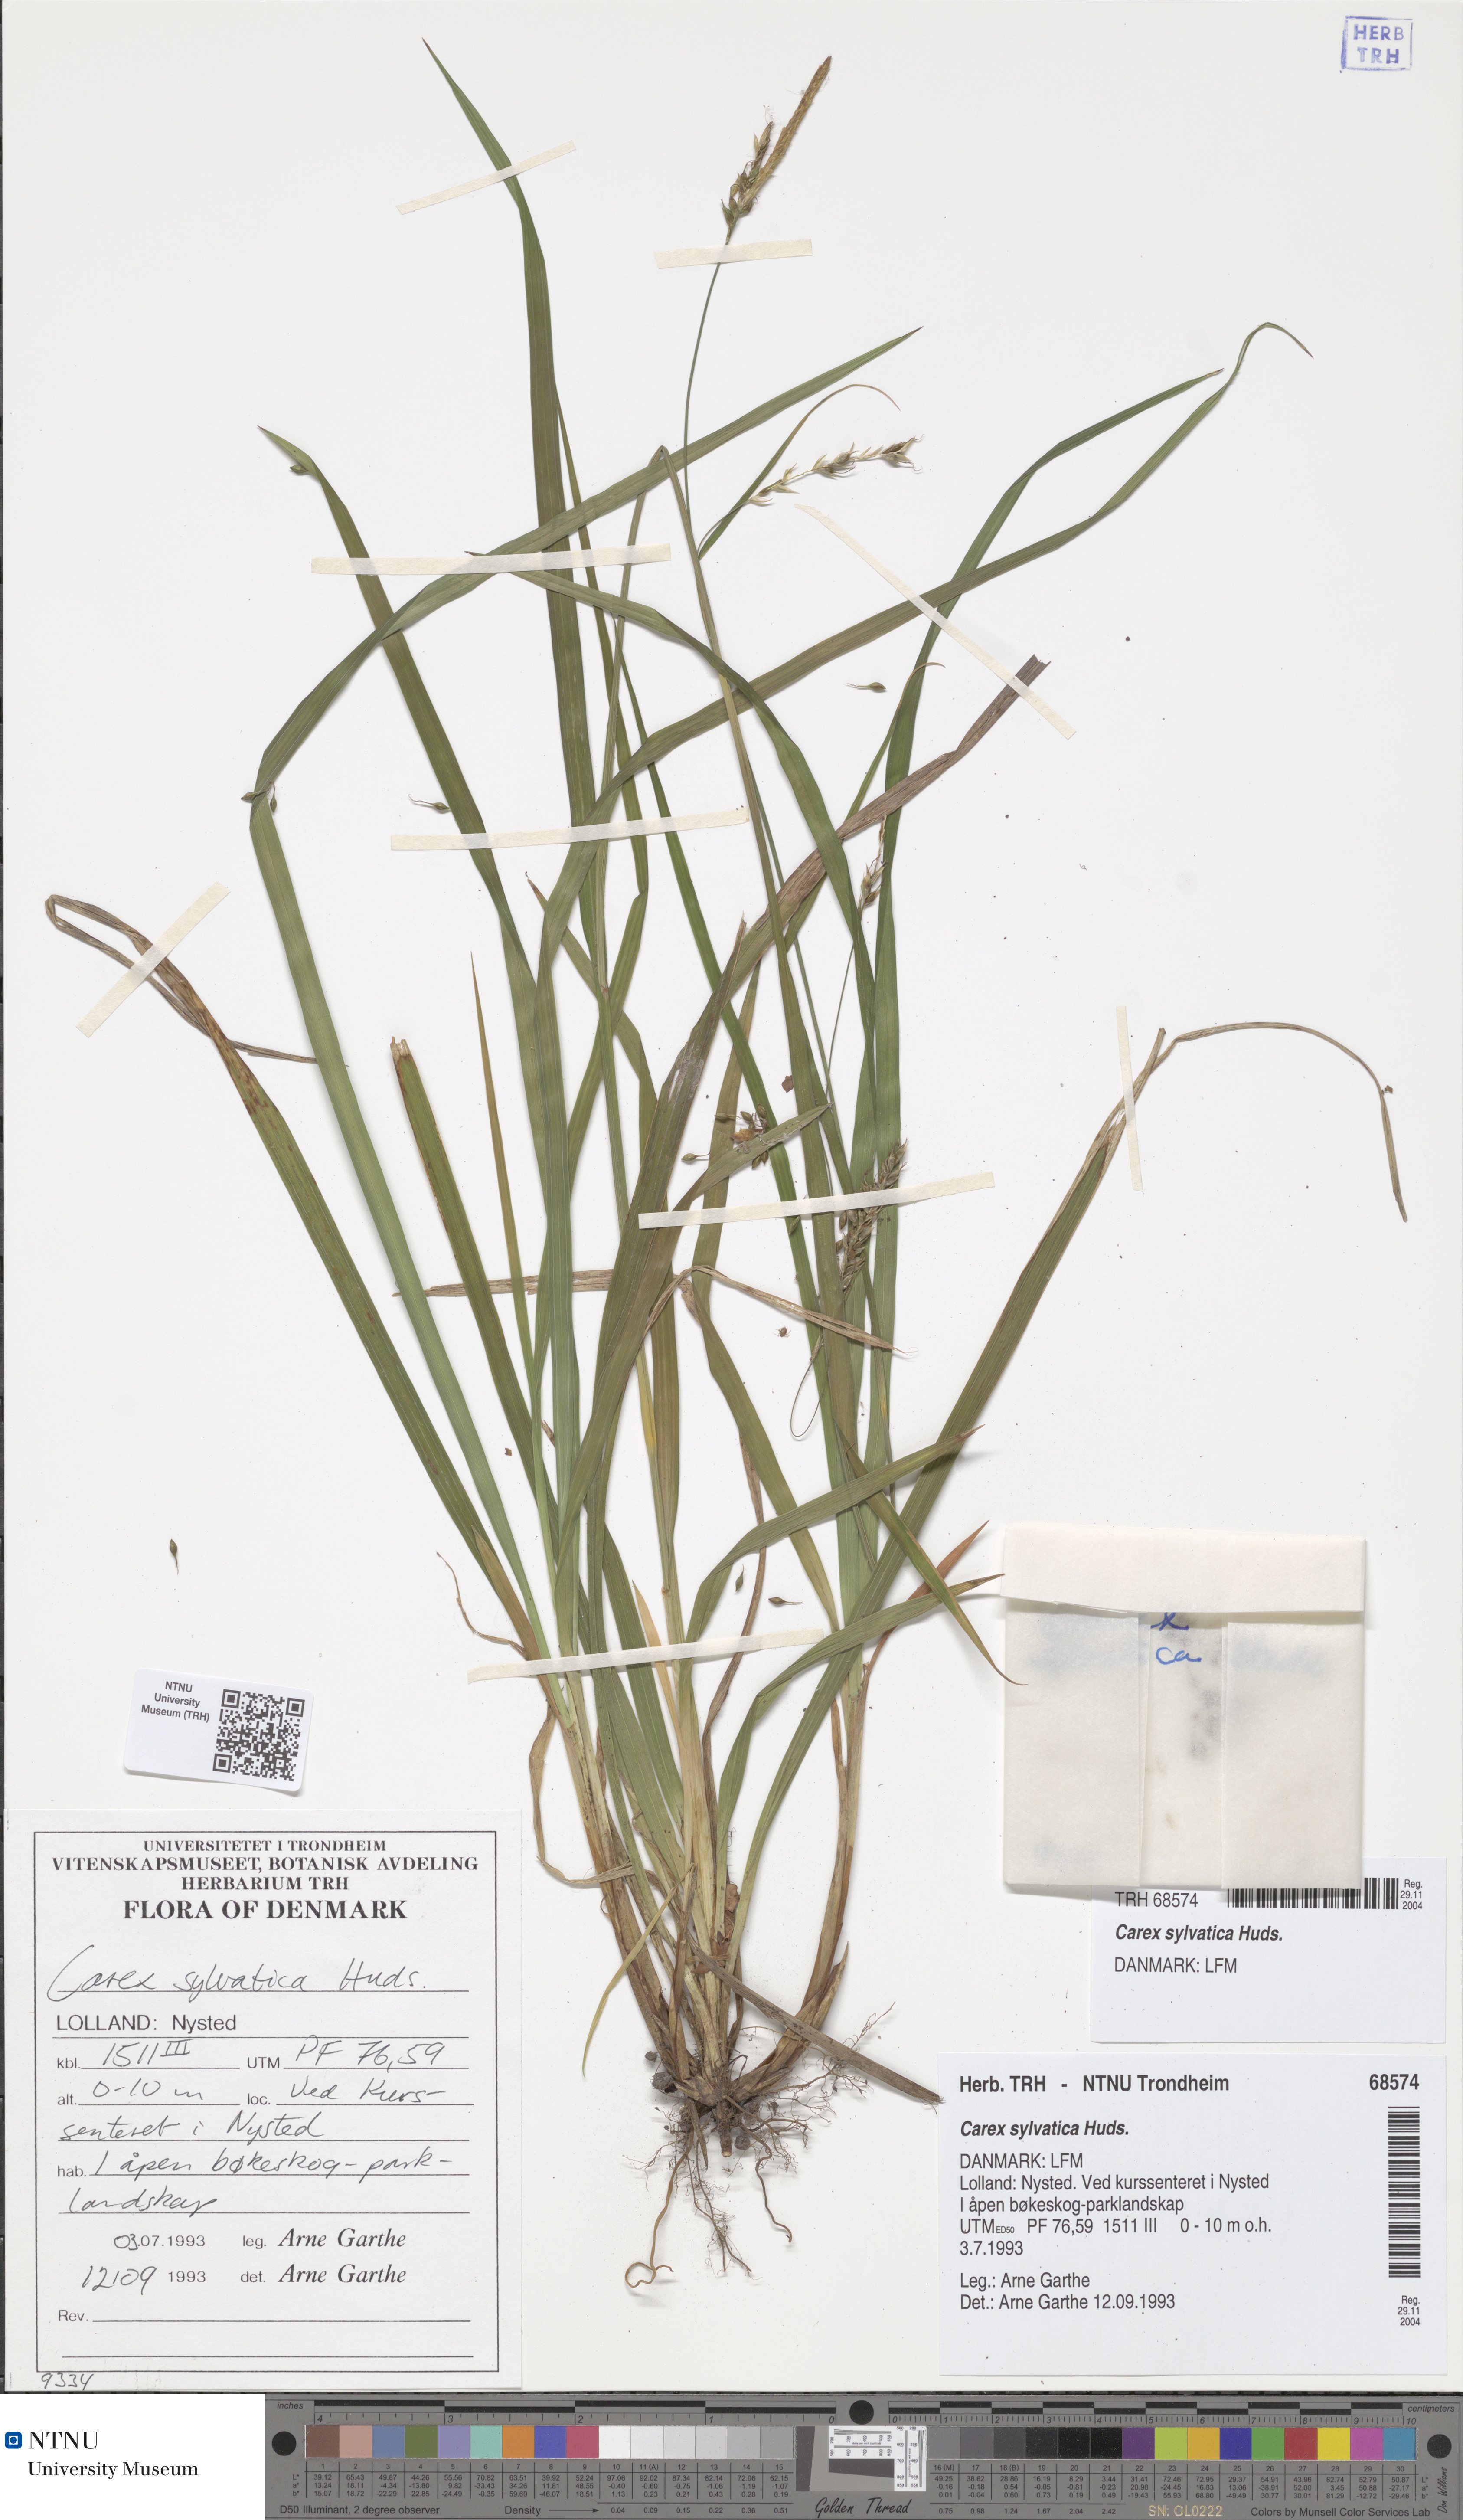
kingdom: Plantae
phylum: Tracheophyta
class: Liliopsida
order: Poales
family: Cyperaceae
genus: Carex
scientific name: Carex sylvatica
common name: Wood-sedge
